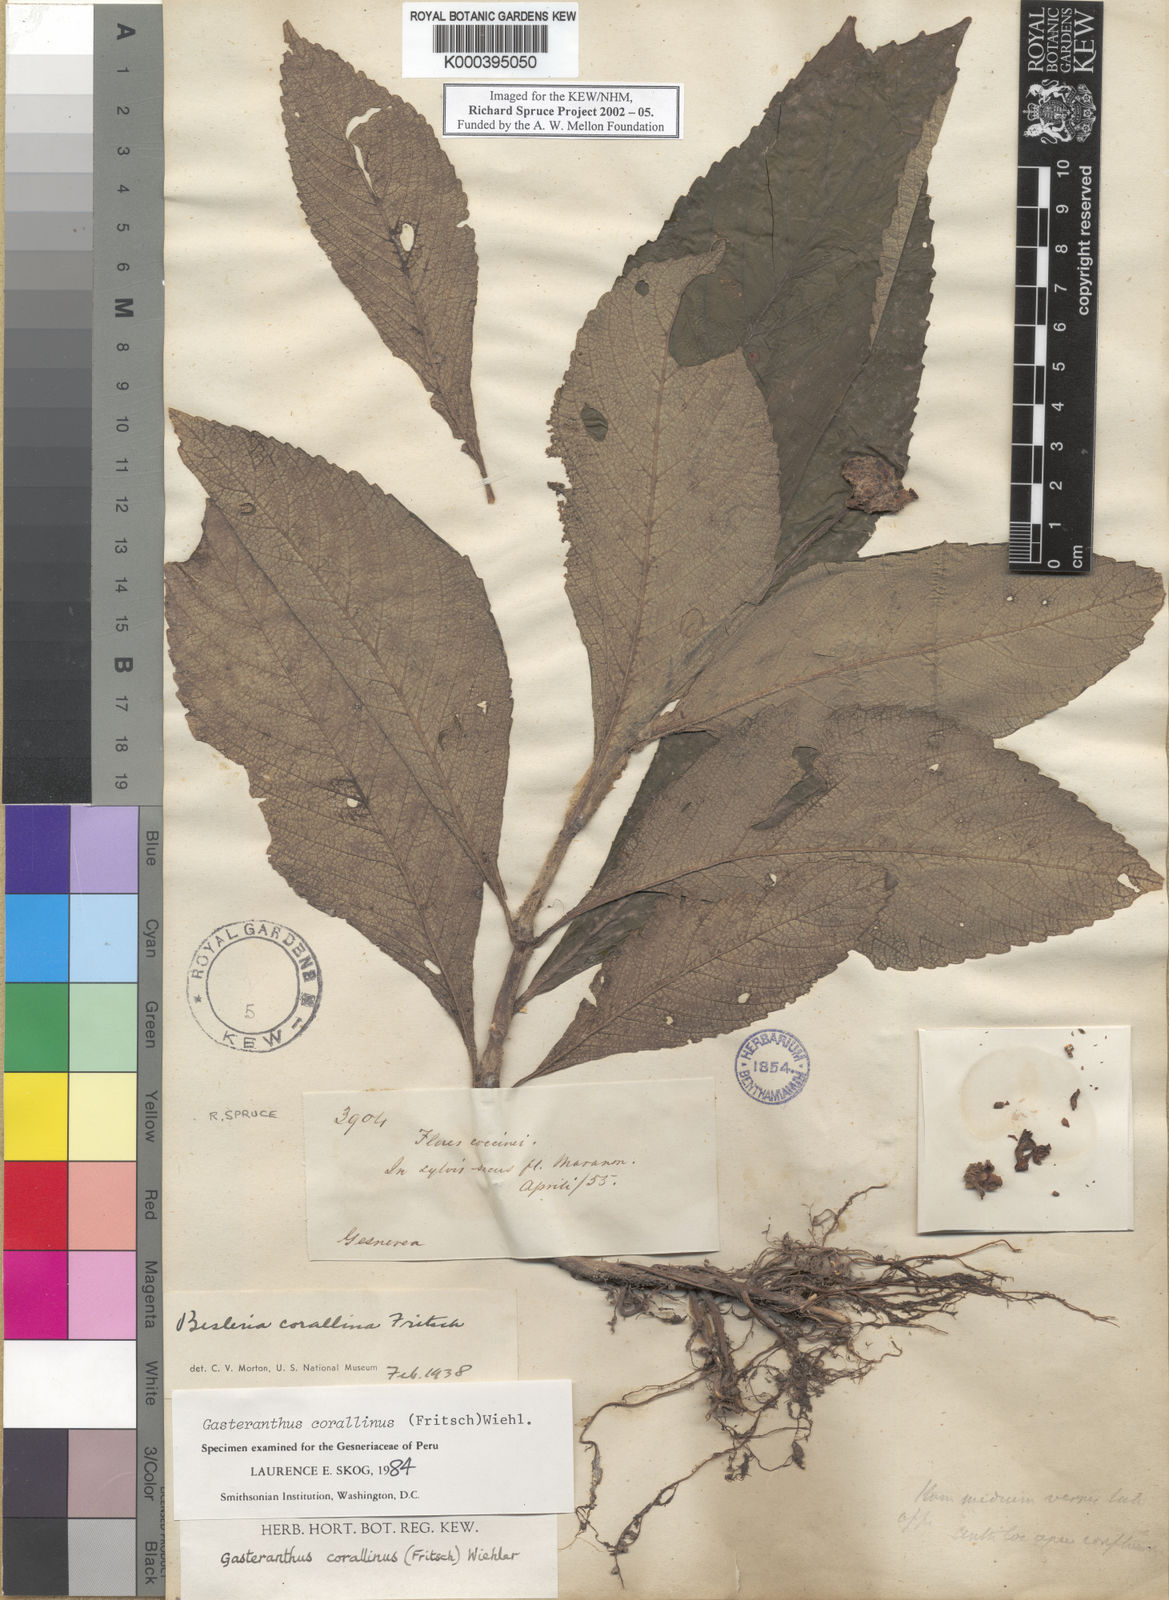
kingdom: Plantae
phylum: Tracheophyta
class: Magnoliopsida
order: Lamiales
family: Gesneriaceae
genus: Gasteranthus
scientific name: Gasteranthus corallinus
